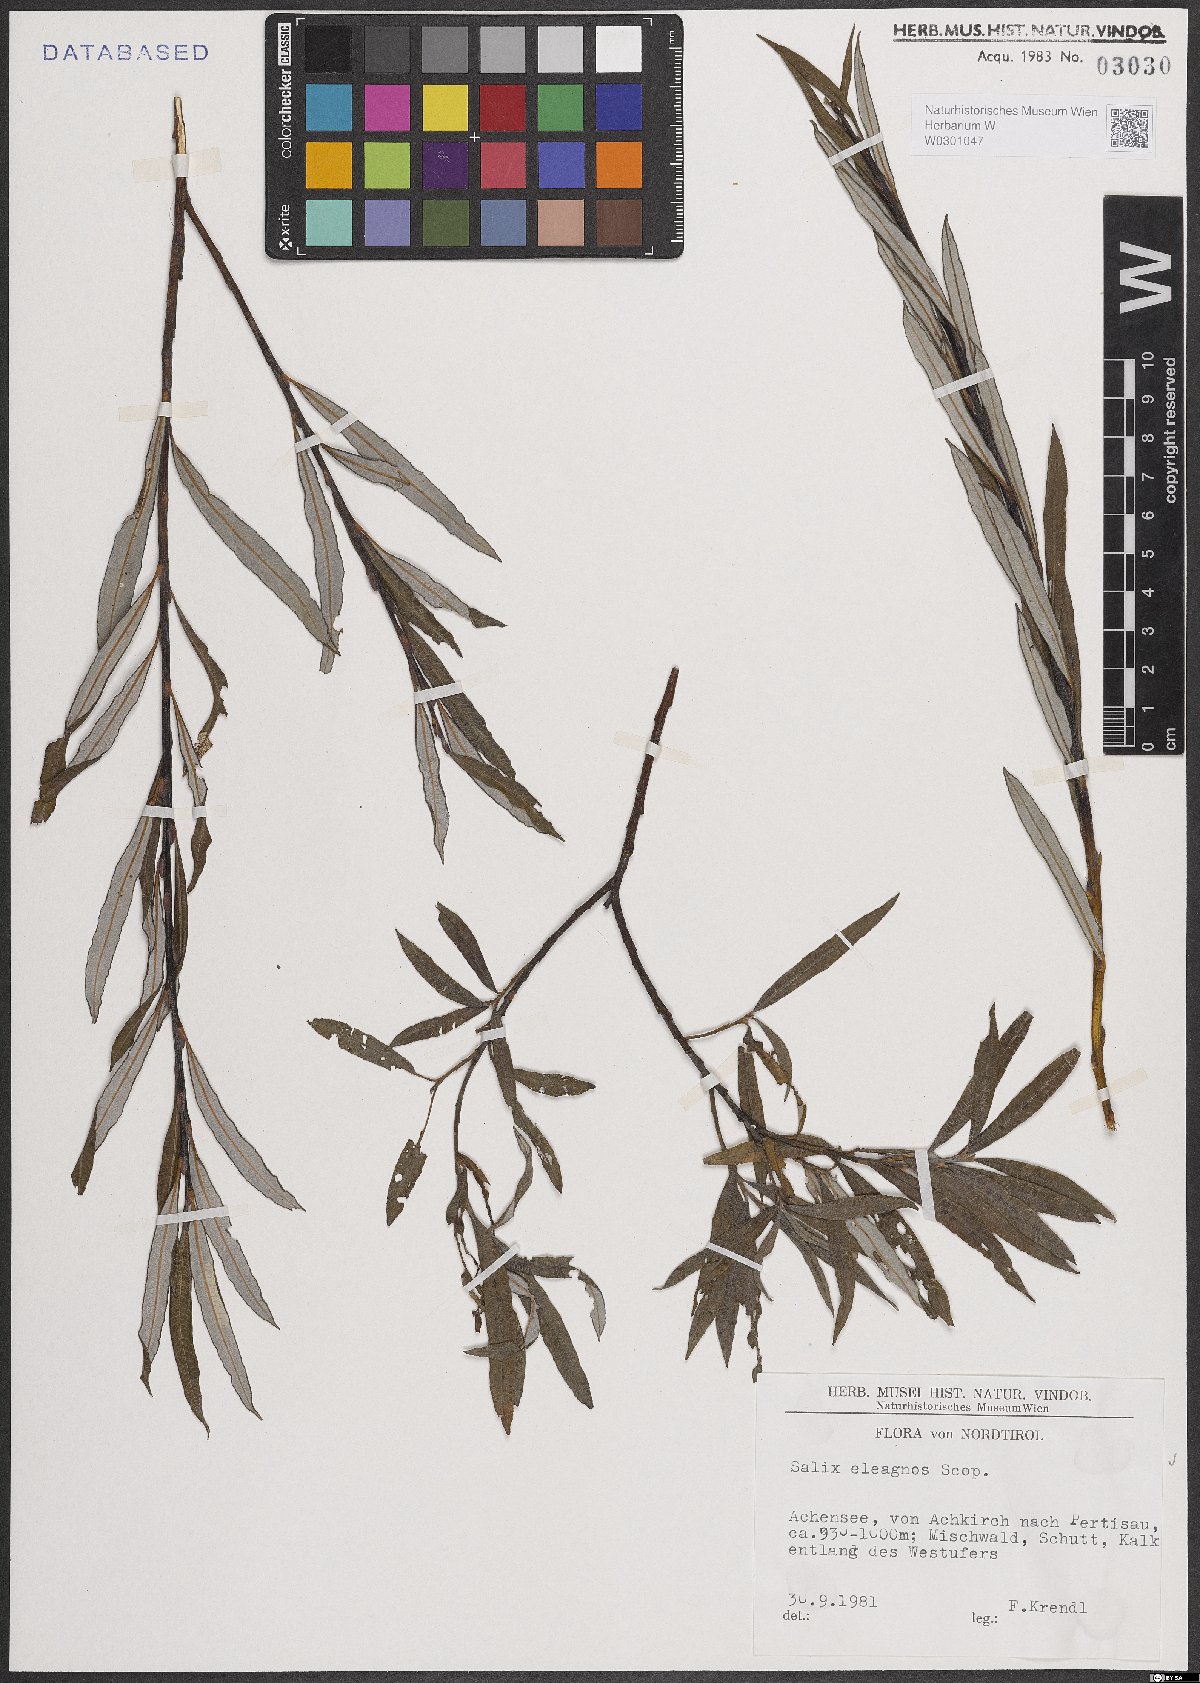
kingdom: Plantae
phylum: Tracheophyta
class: Magnoliopsida
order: Malpighiales
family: Salicaceae
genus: Salix
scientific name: Salix eleagnos
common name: Elaeagnus willow
